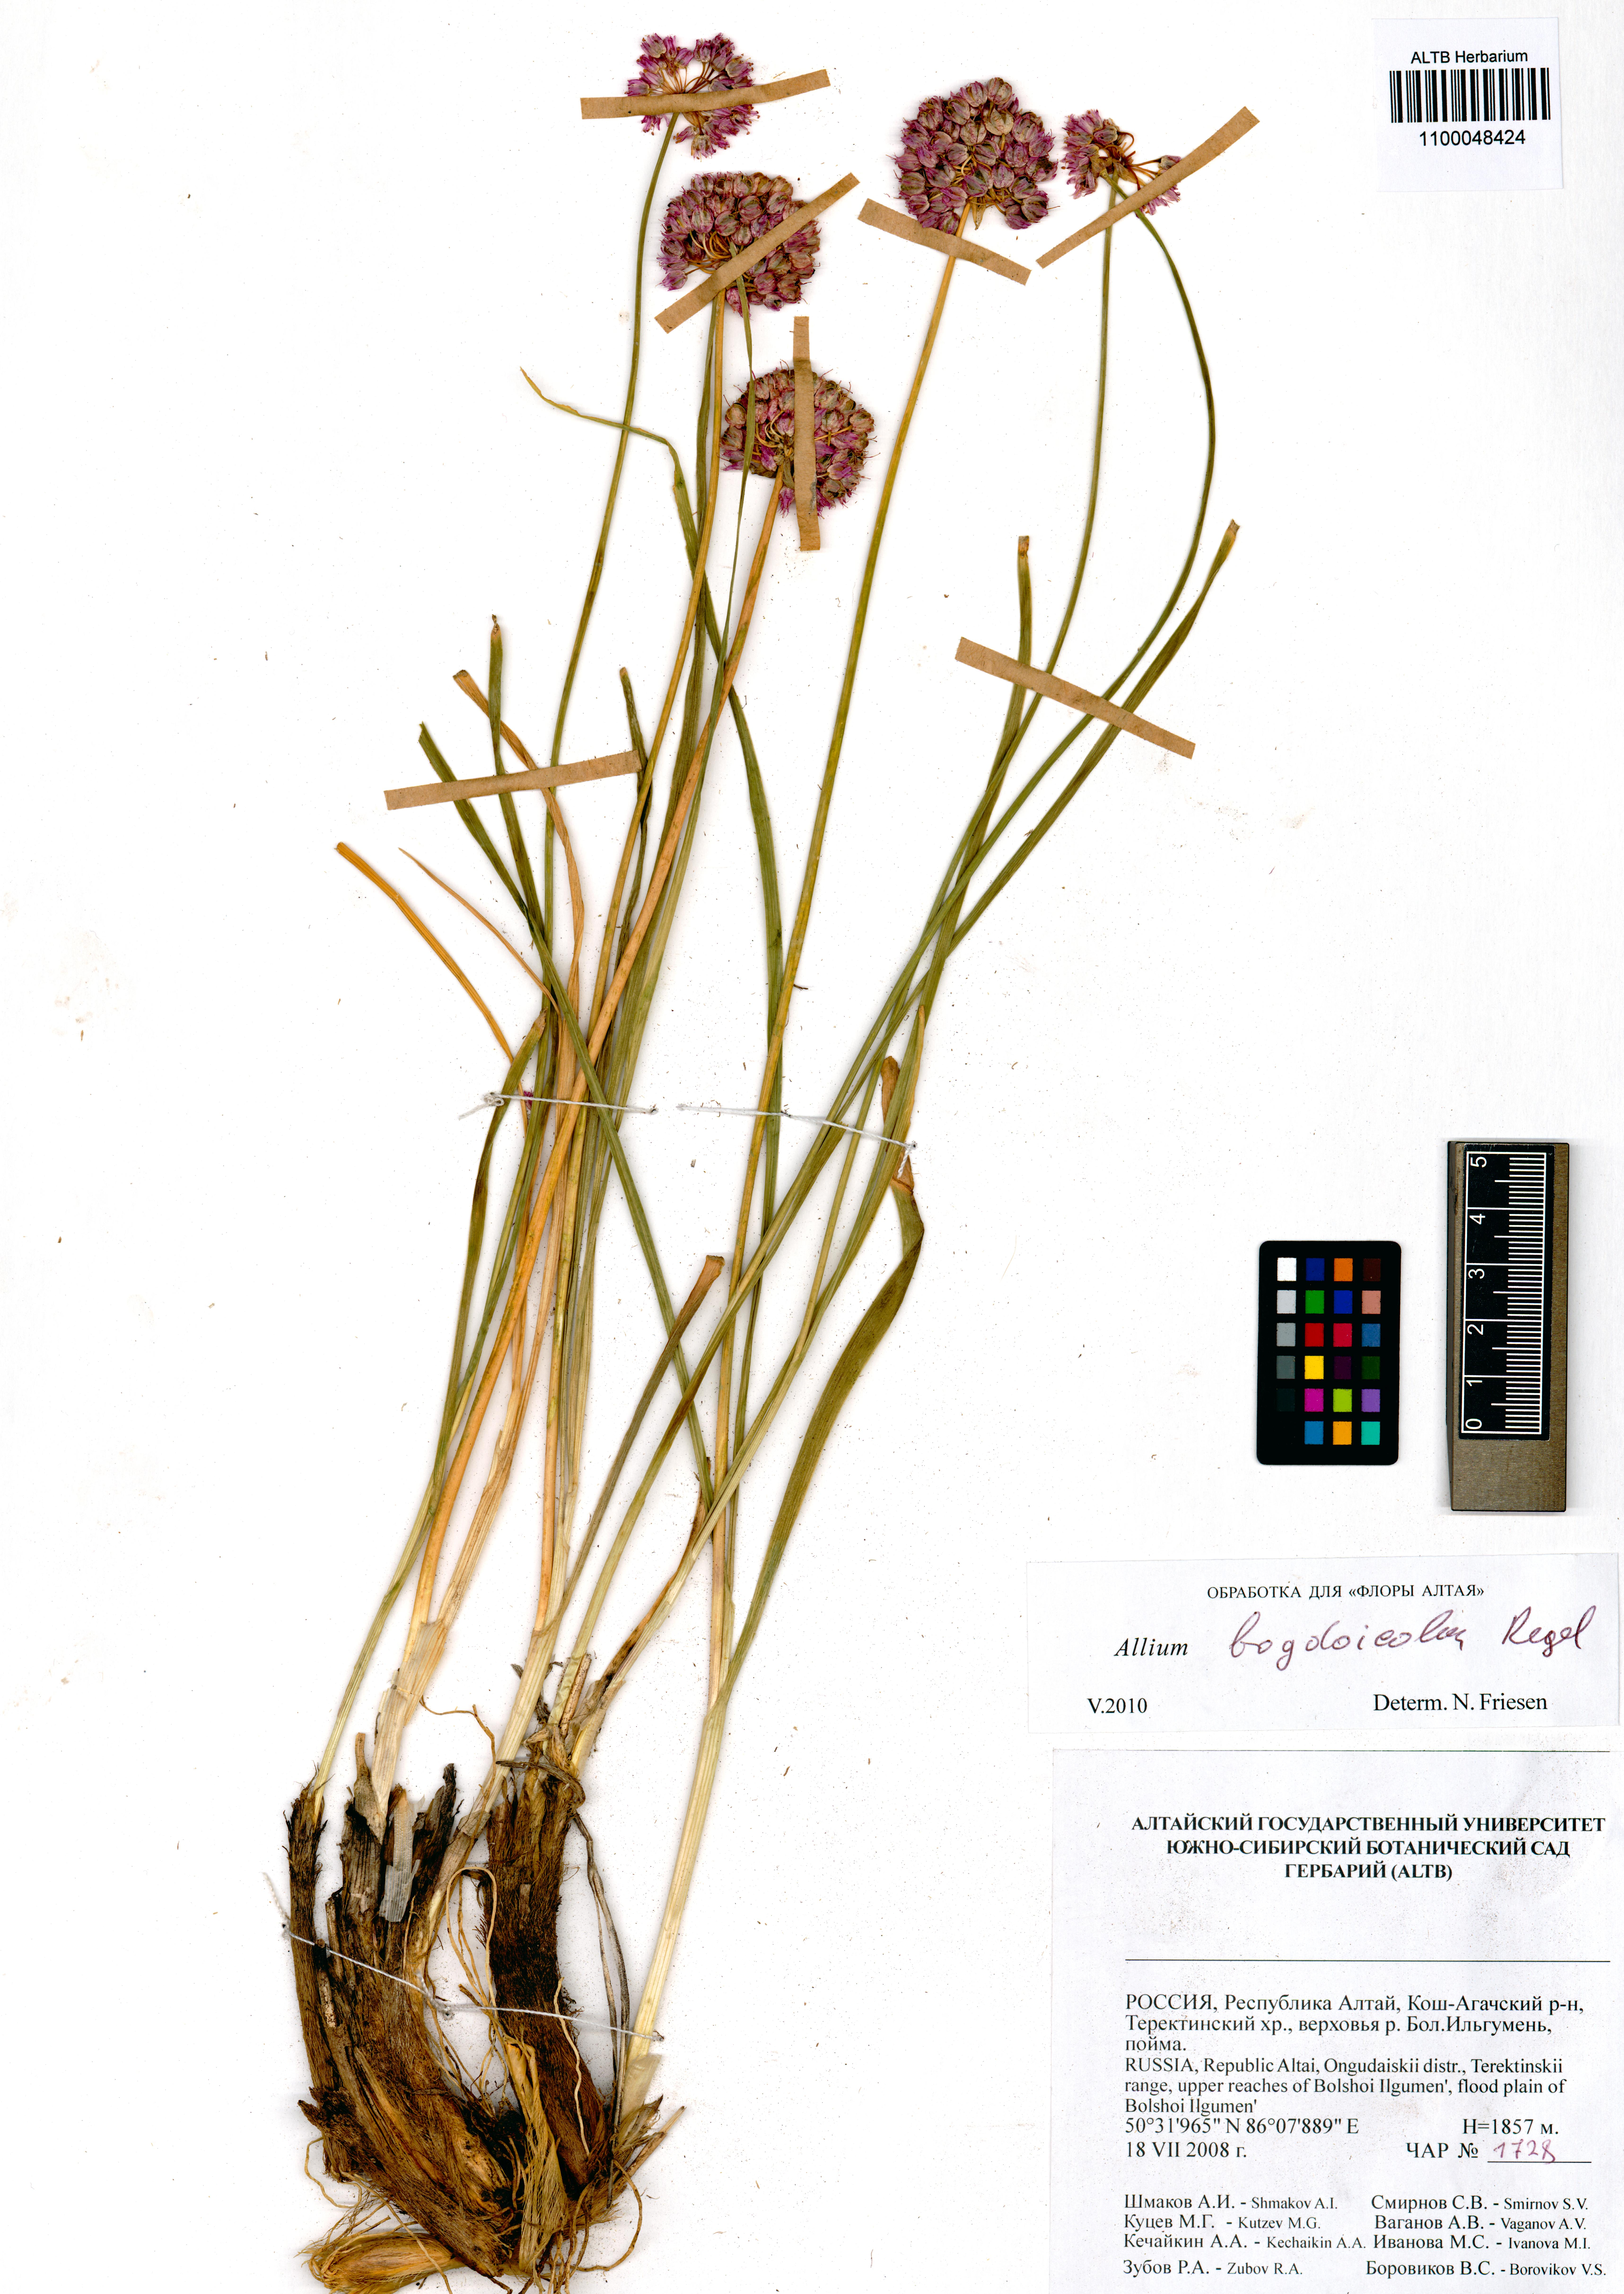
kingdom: Plantae
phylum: Tracheophyta
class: Liliopsida
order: Asparagales
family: Amaryllidaceae
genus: Allium
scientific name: Allium schrenkii
